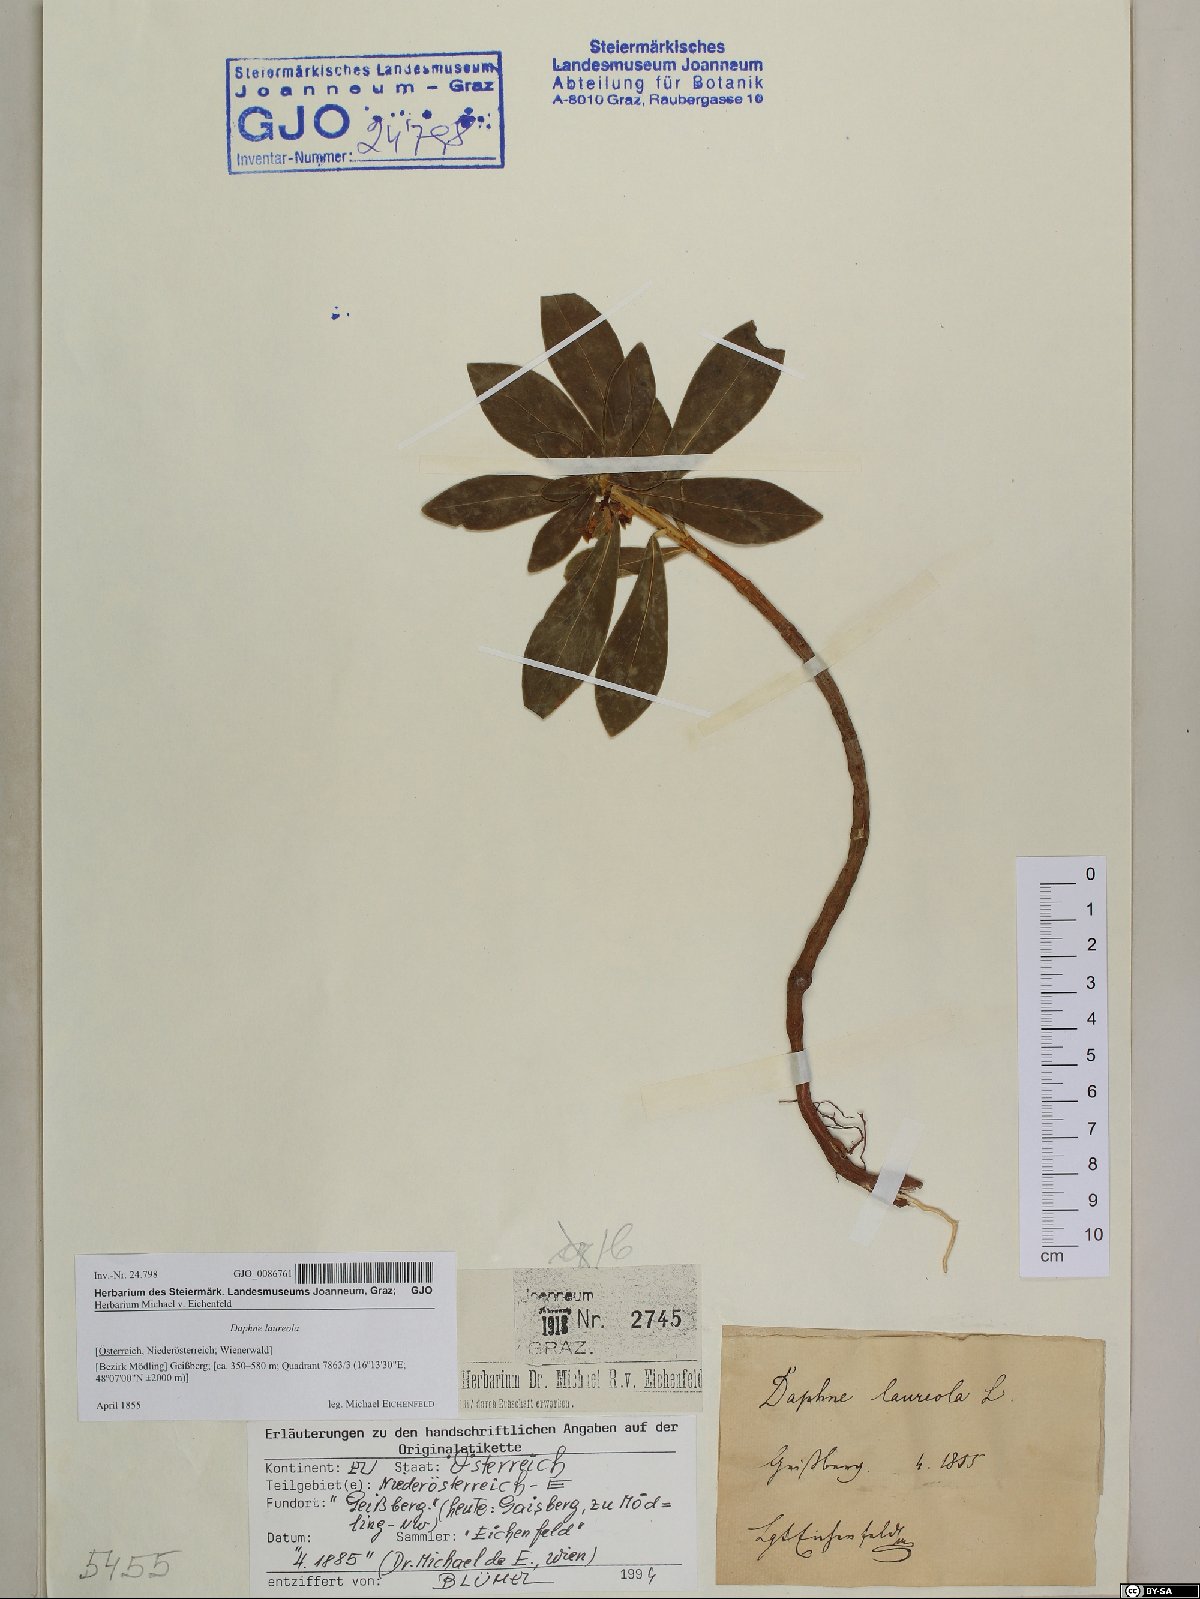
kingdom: Plantae
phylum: Tracheophyta
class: Magnoliopsida
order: Malvales
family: Thymelaeaceae
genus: Daphne
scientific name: Daphne laureola
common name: Spurge-laurel
